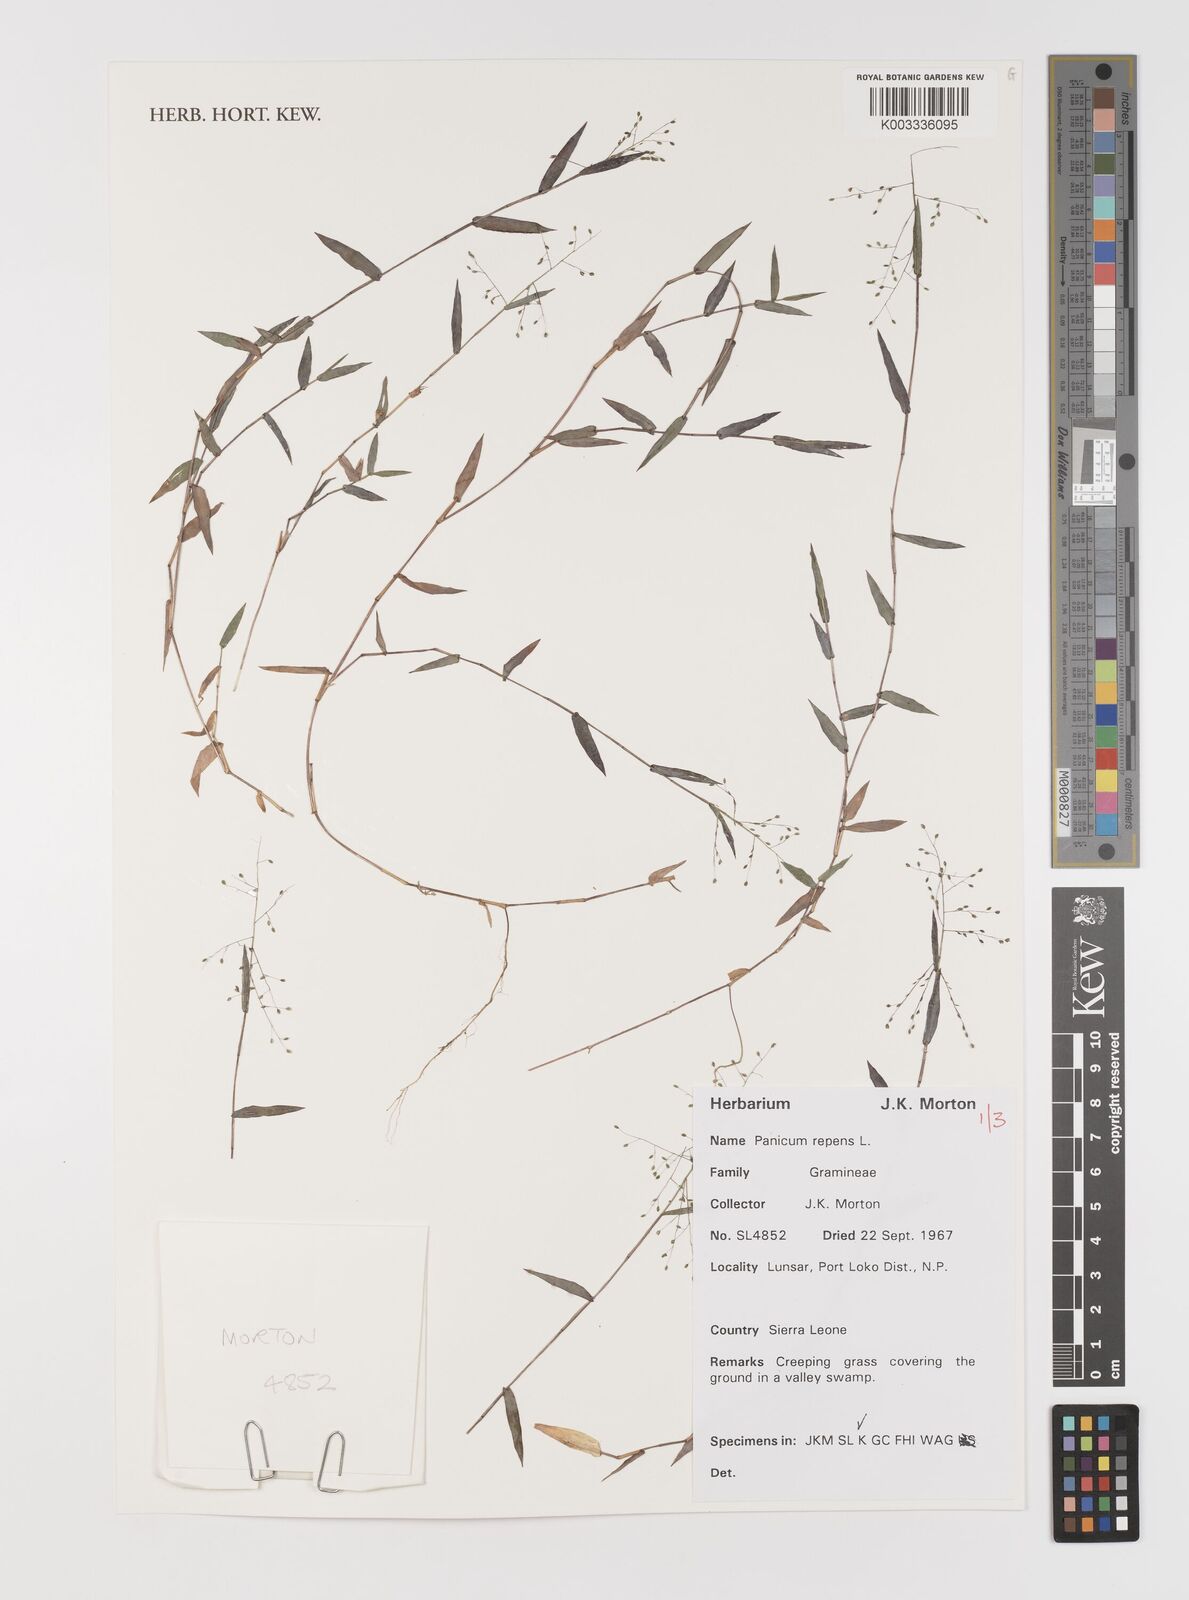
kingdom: Plantae
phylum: Tracheophyta
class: Liliopsida
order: Poales
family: Poaceae
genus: Panicum
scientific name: Panicum repens
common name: Torpedo grass
